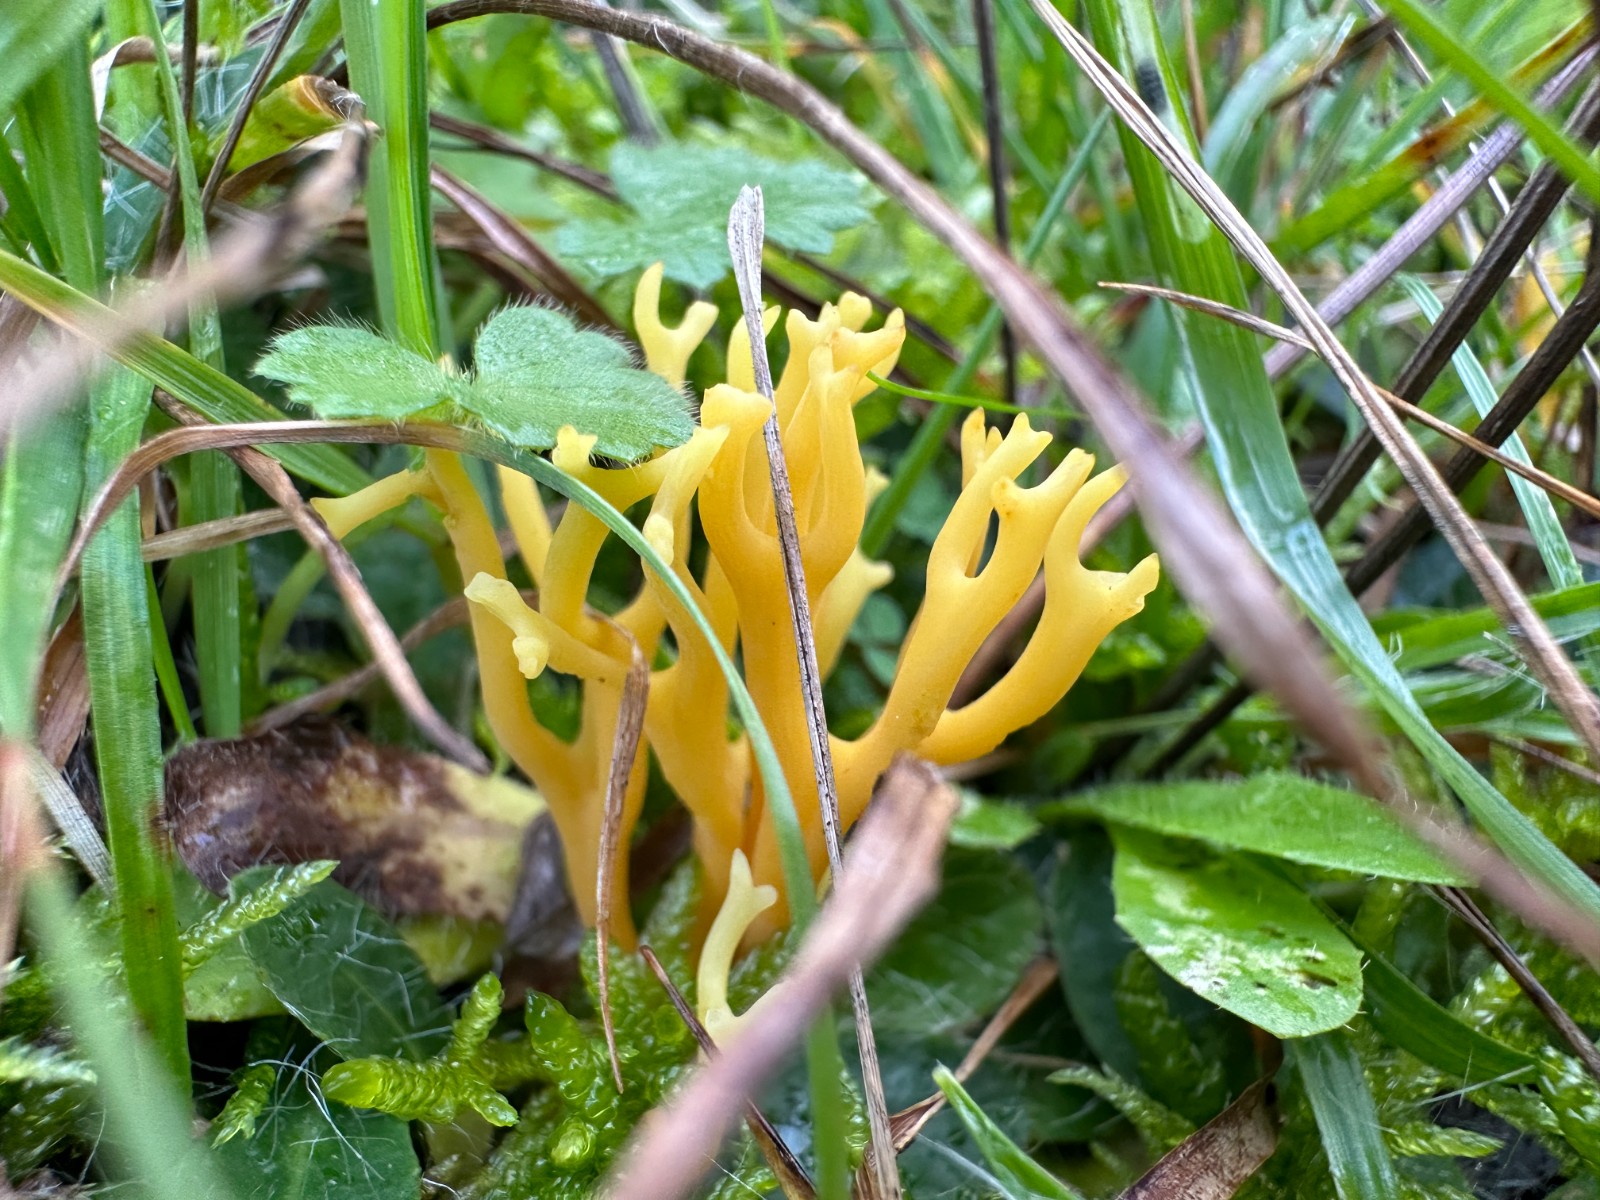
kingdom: Fungi
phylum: Basidiomycota
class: Agaricomycetes
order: Agaricales
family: Clavariaceae
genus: Clavulinopsis
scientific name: Clavulinopsis corniculata
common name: eng-køllesvamp
